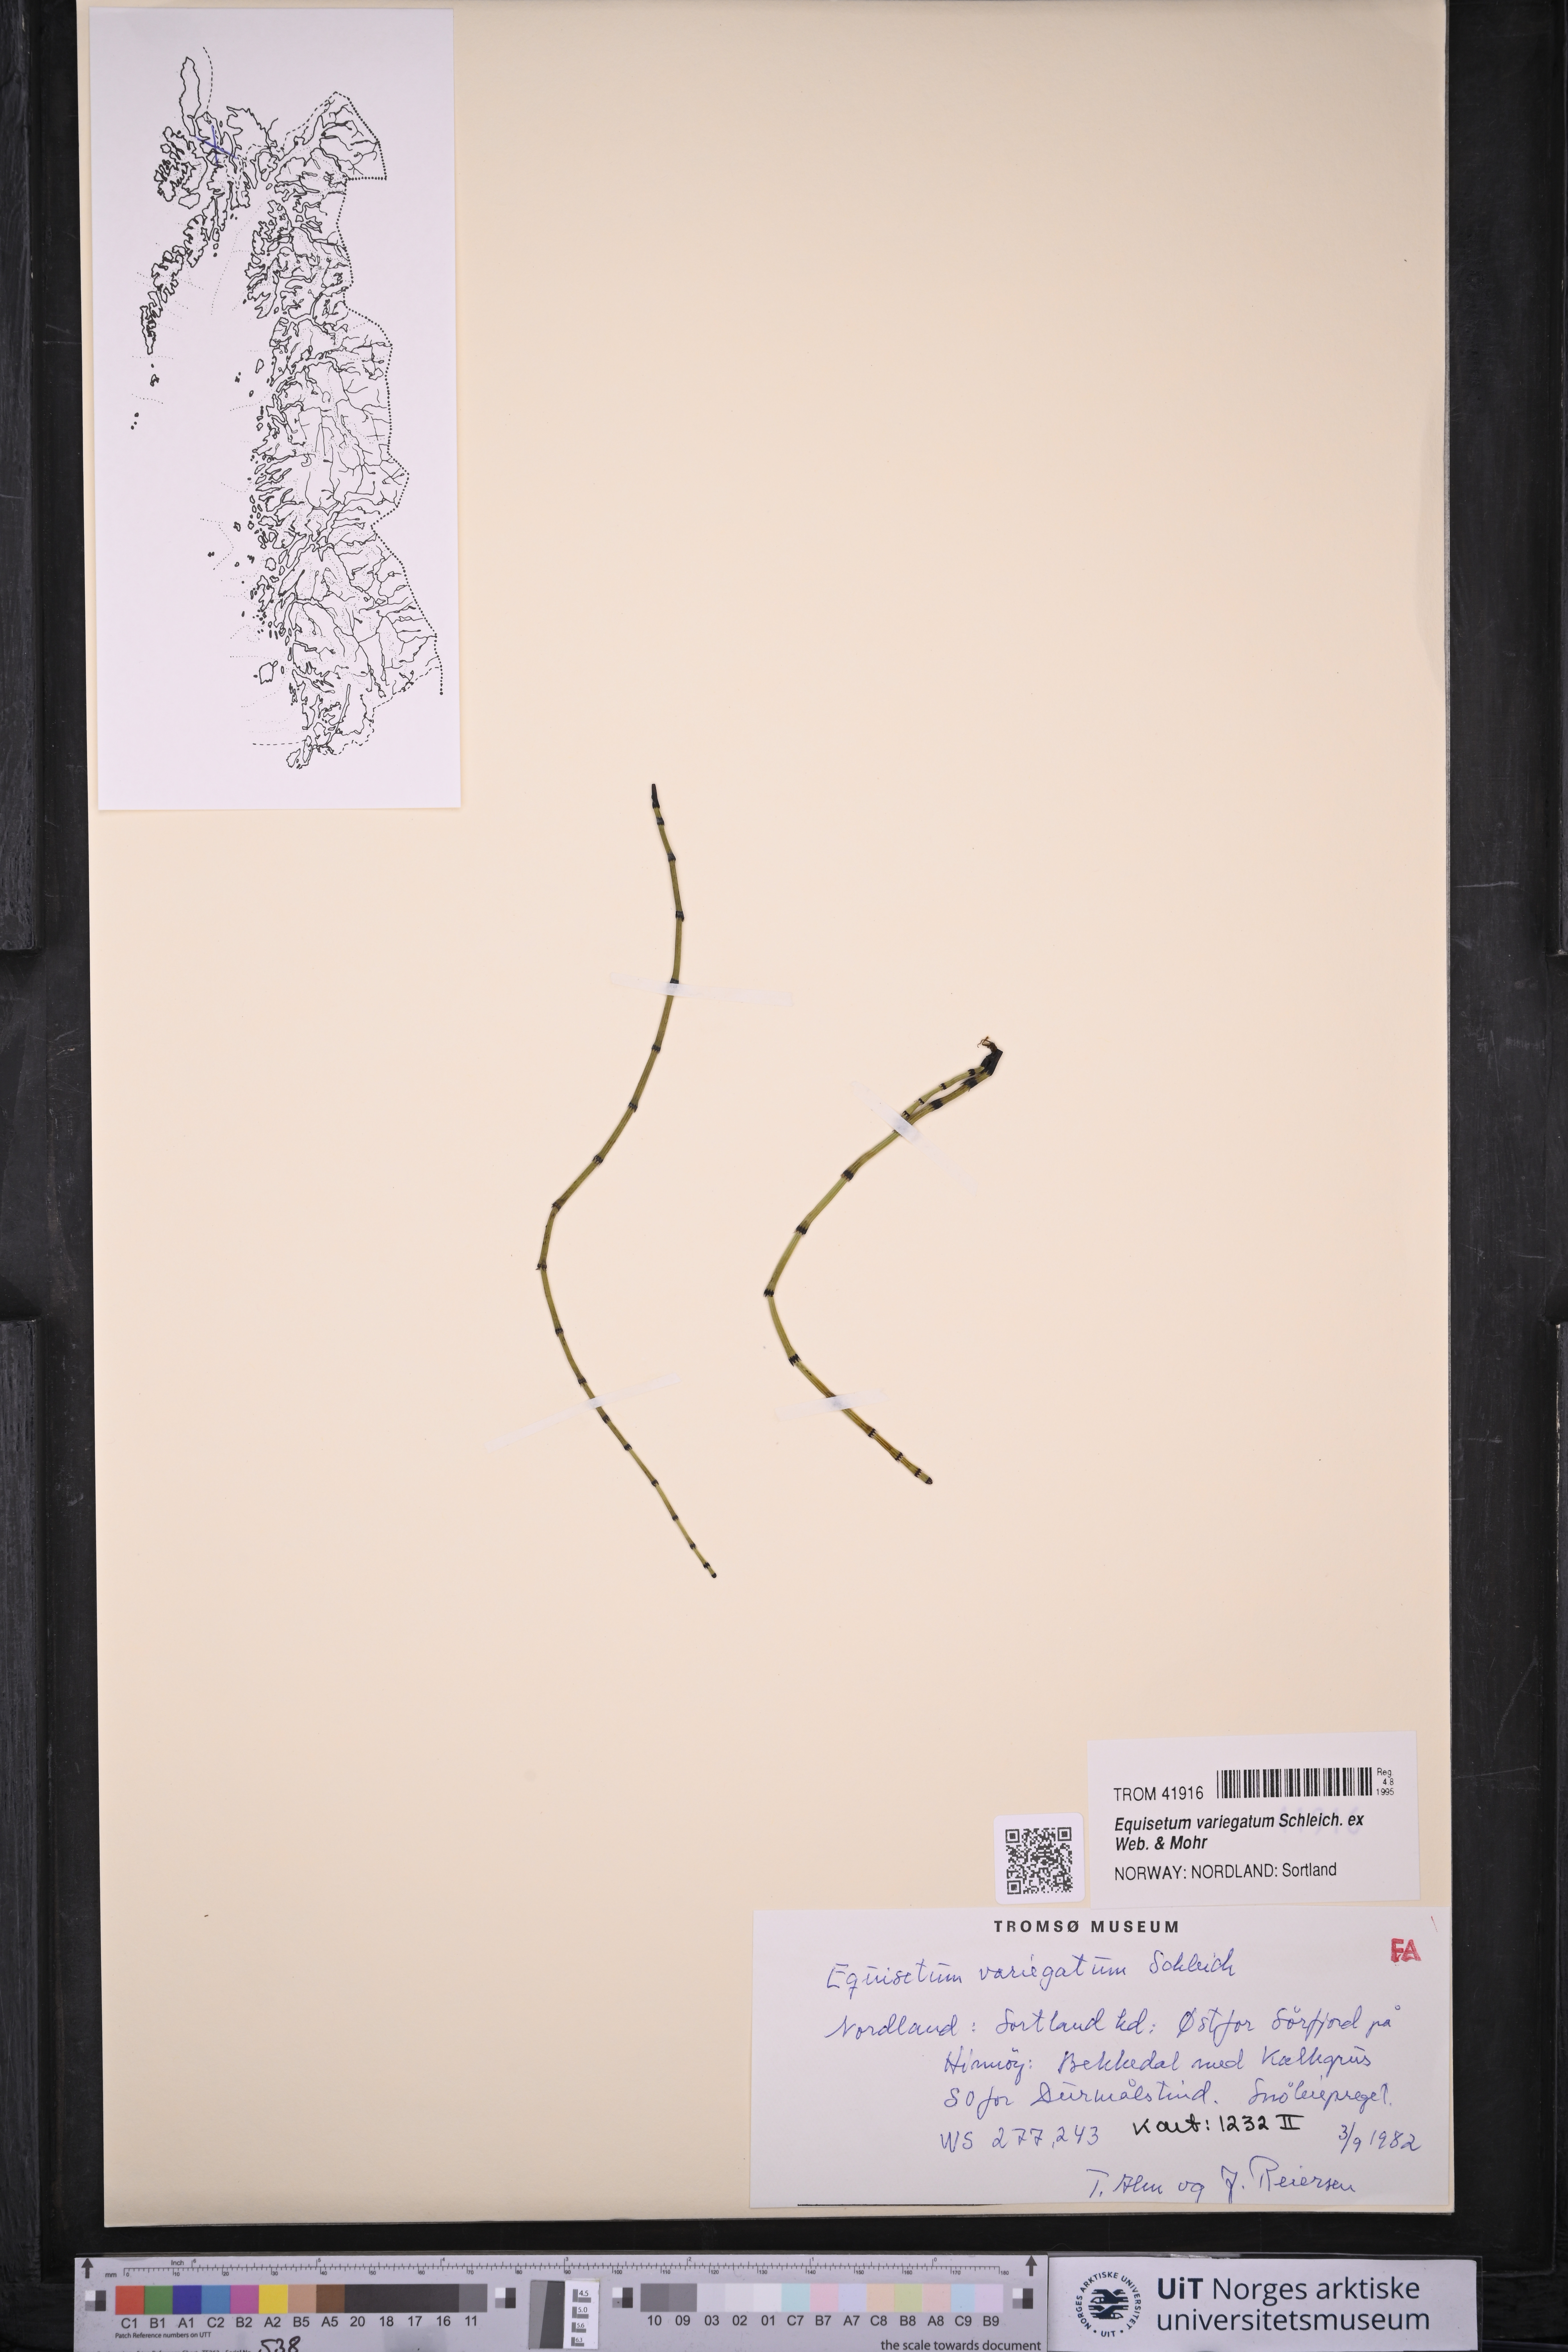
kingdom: Plantae
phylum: Tracheophyta
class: Polypodiopsida
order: Equisetales
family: Equisetaceae
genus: Equisetum
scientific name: Equisetum variegatum
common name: Variegated horsetail
